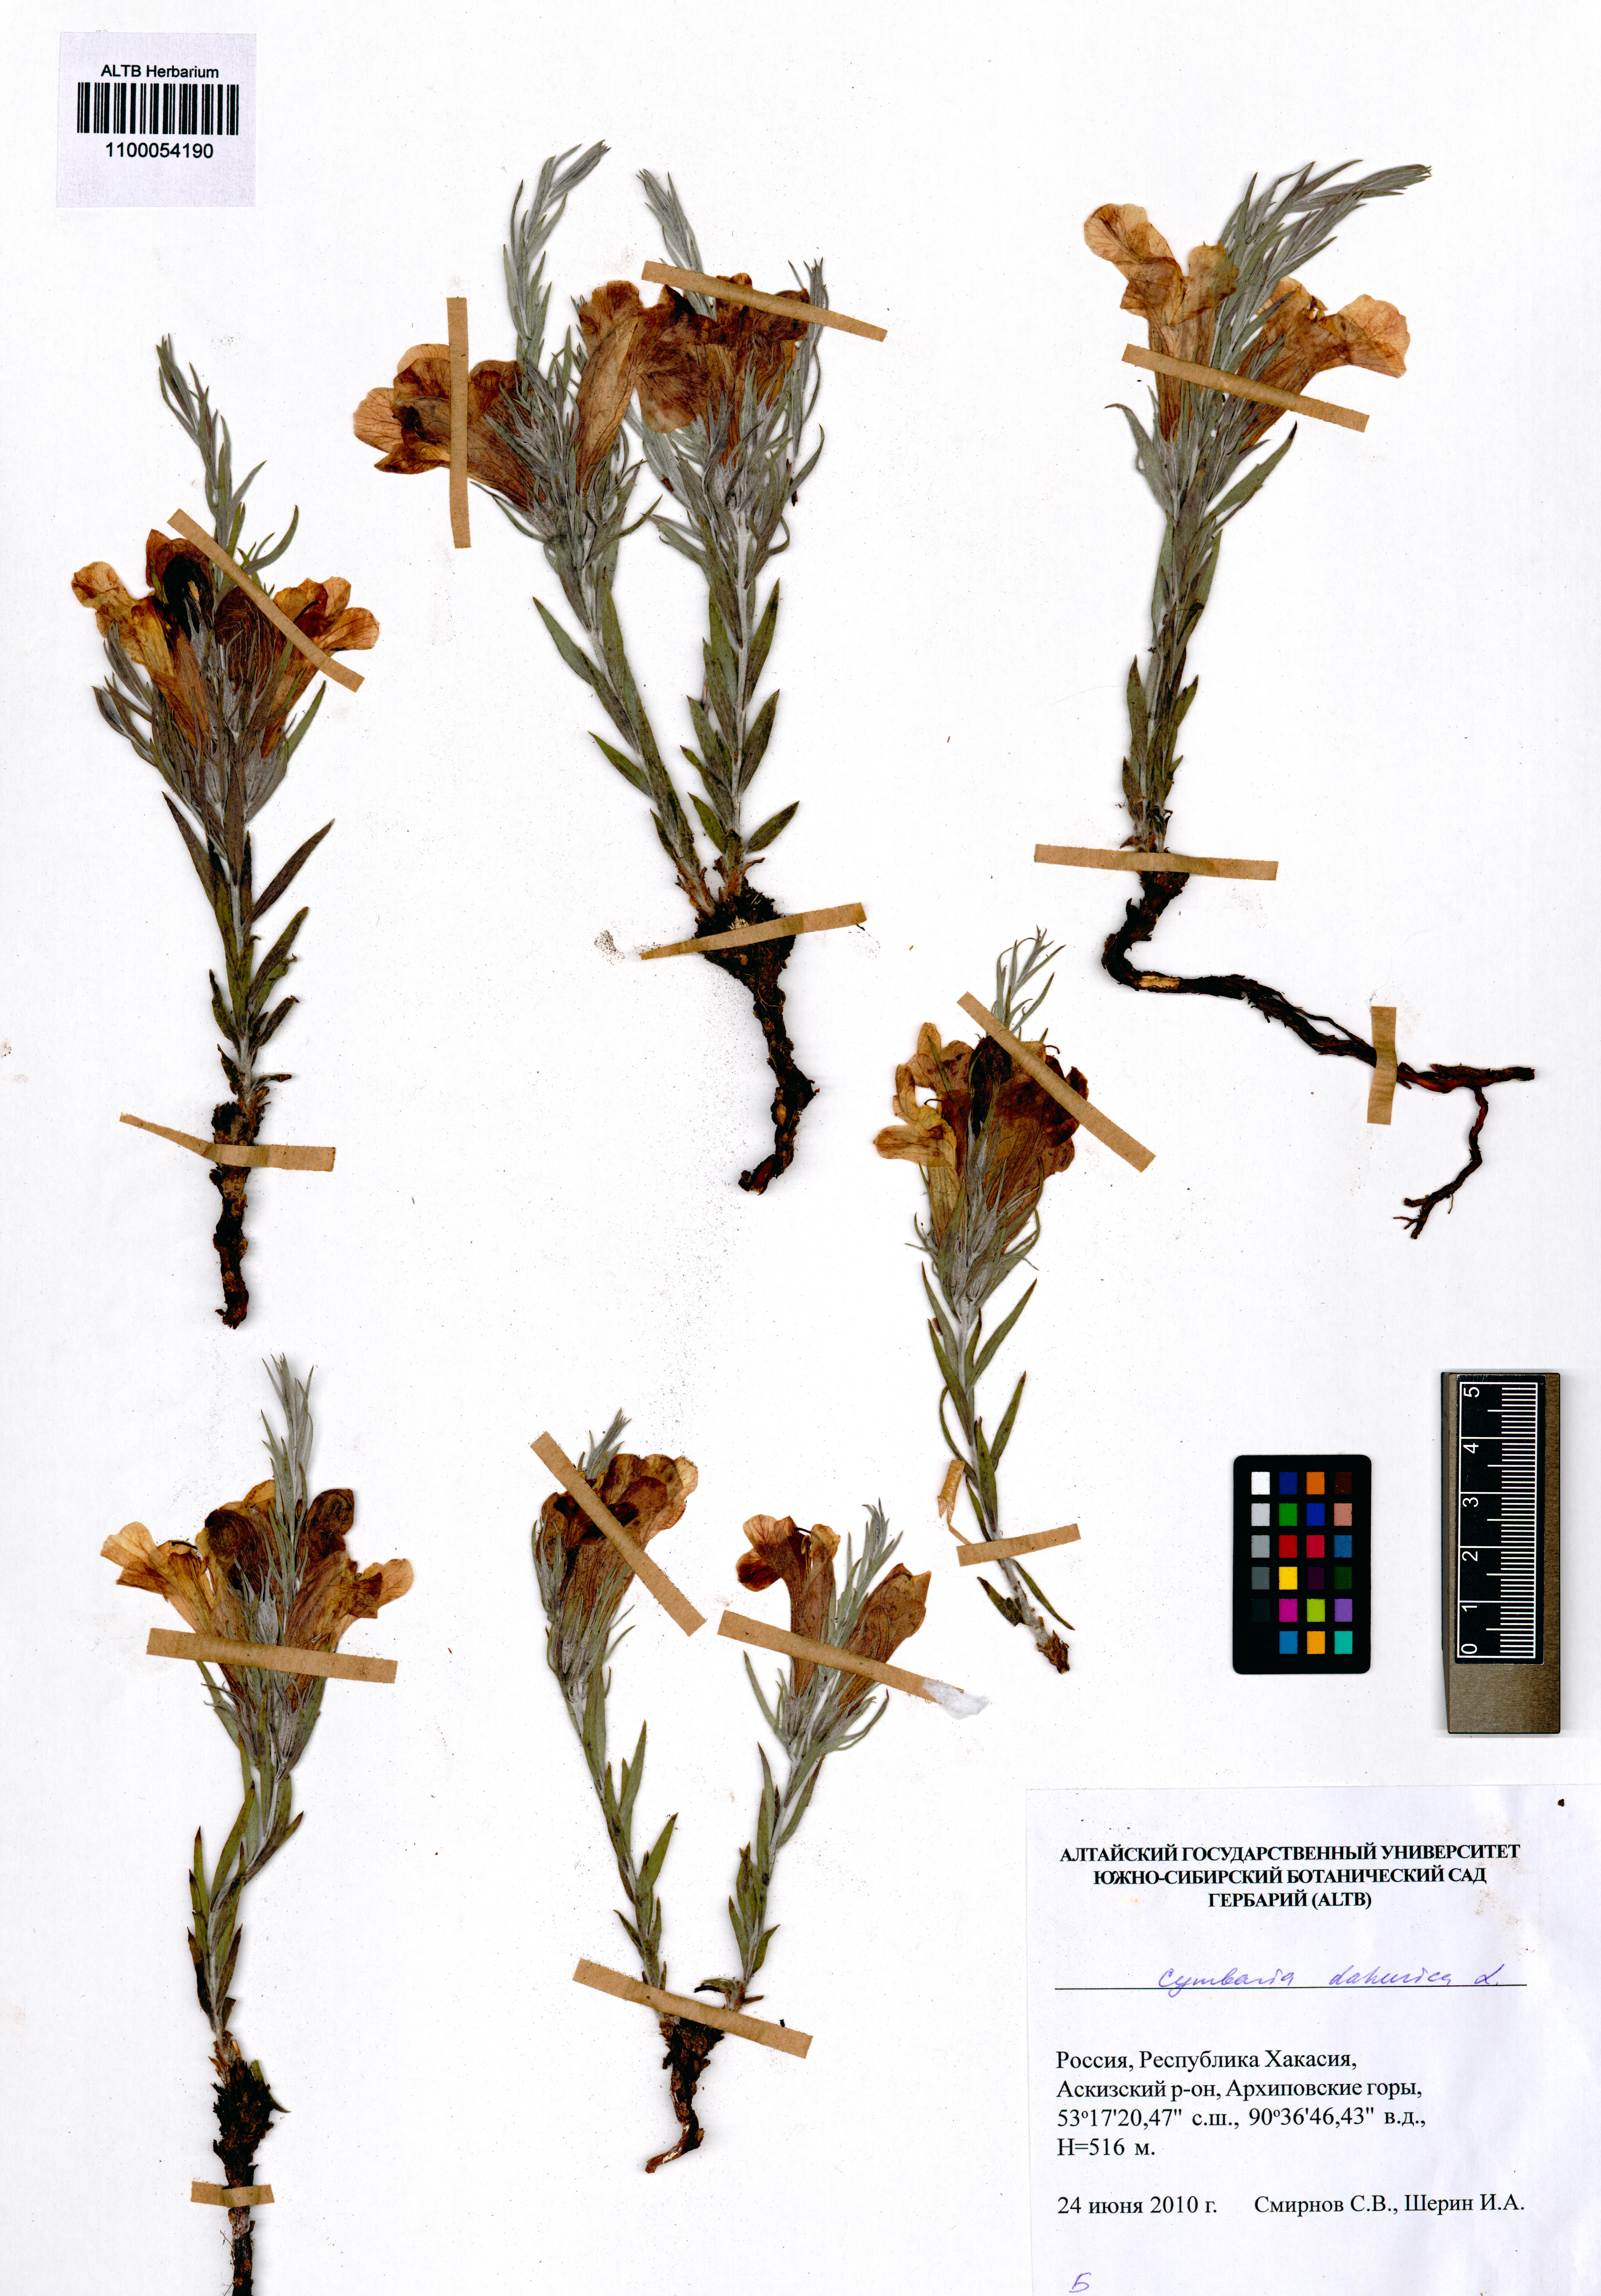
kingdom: Plantae
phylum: Tracheophyta
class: Magnoliopsida
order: Lamiales
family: Orobanchaceae
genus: Cymbaria
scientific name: Cymbaria daurica
